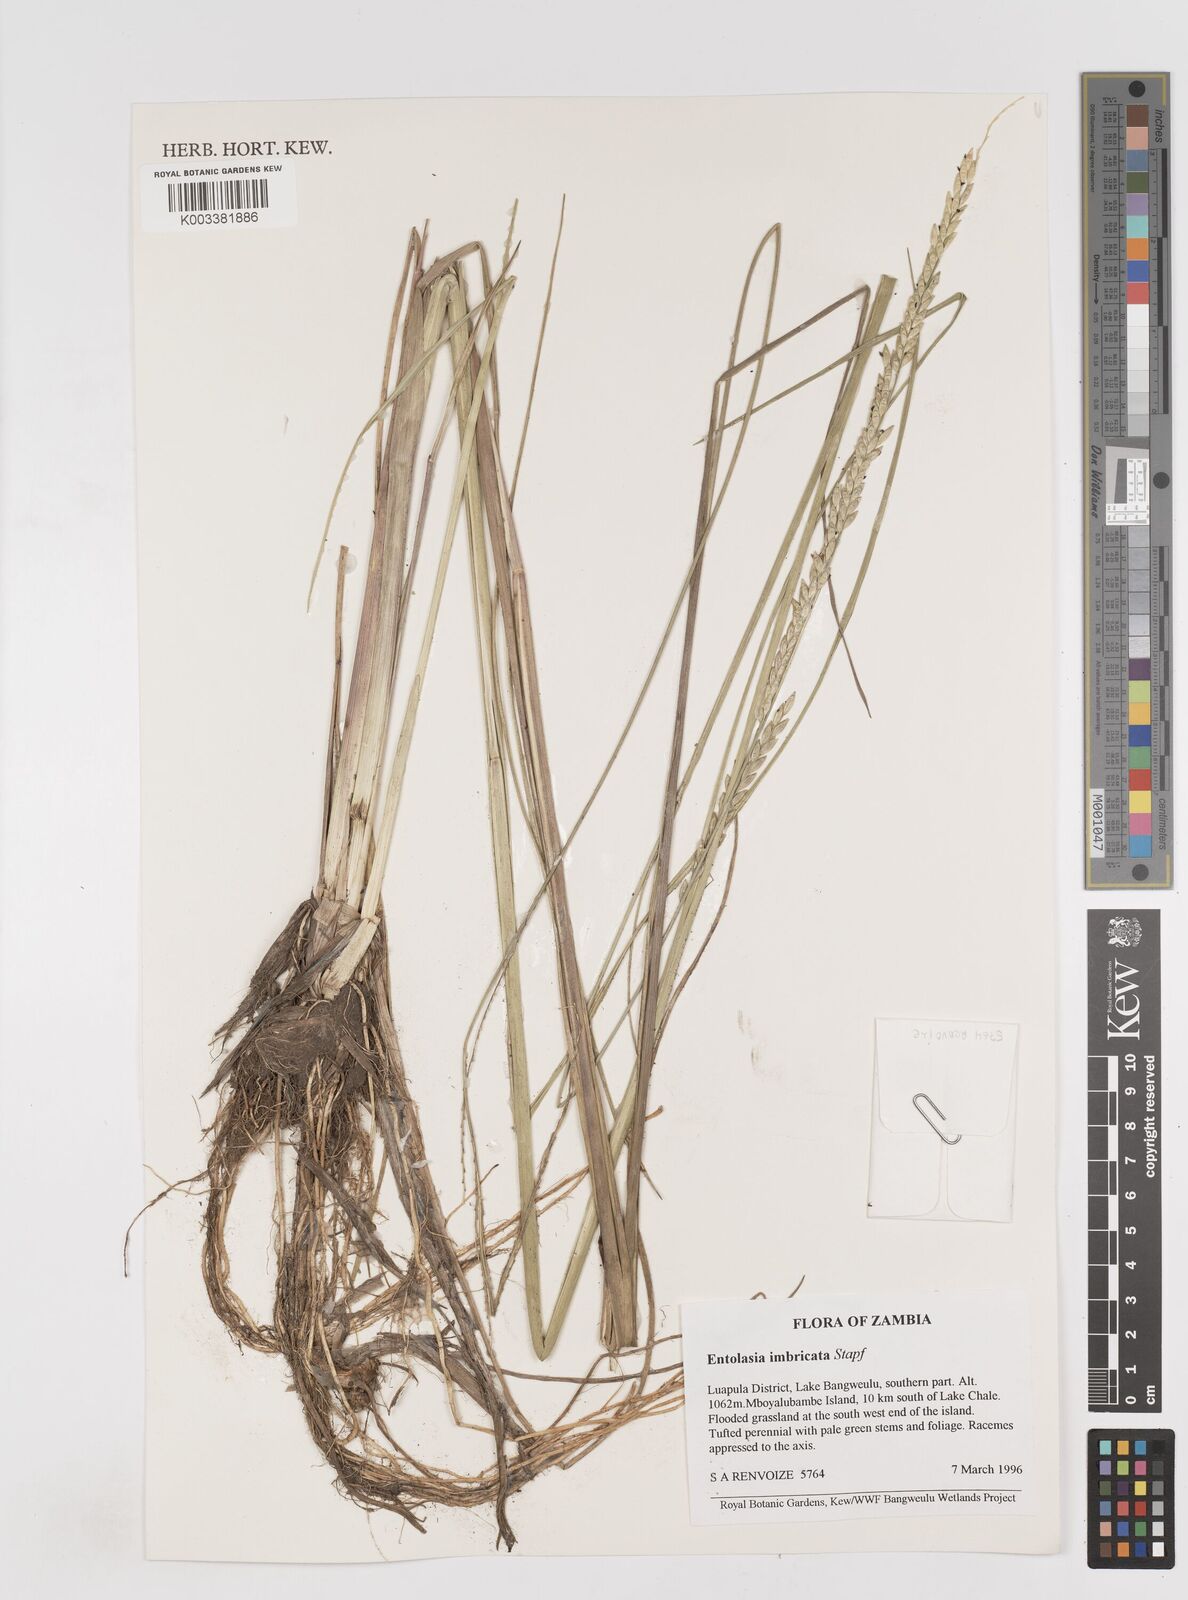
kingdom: Plantae
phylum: Tracheophyta
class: Liliopsida
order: Poales
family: Poaceae
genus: Entolasia
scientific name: Entolasia imbricata
